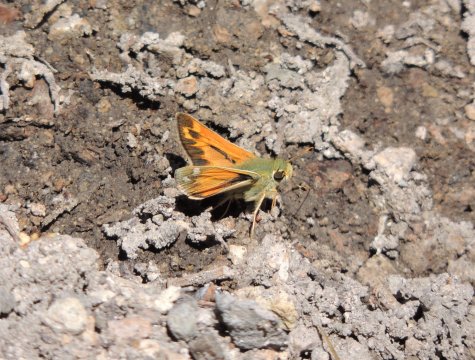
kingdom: Animalia
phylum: Arthropoda
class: Insecta
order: Lepidoptera
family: Hesperiidae
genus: Hesperia
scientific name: Hesperia juba
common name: Juba Skipper
